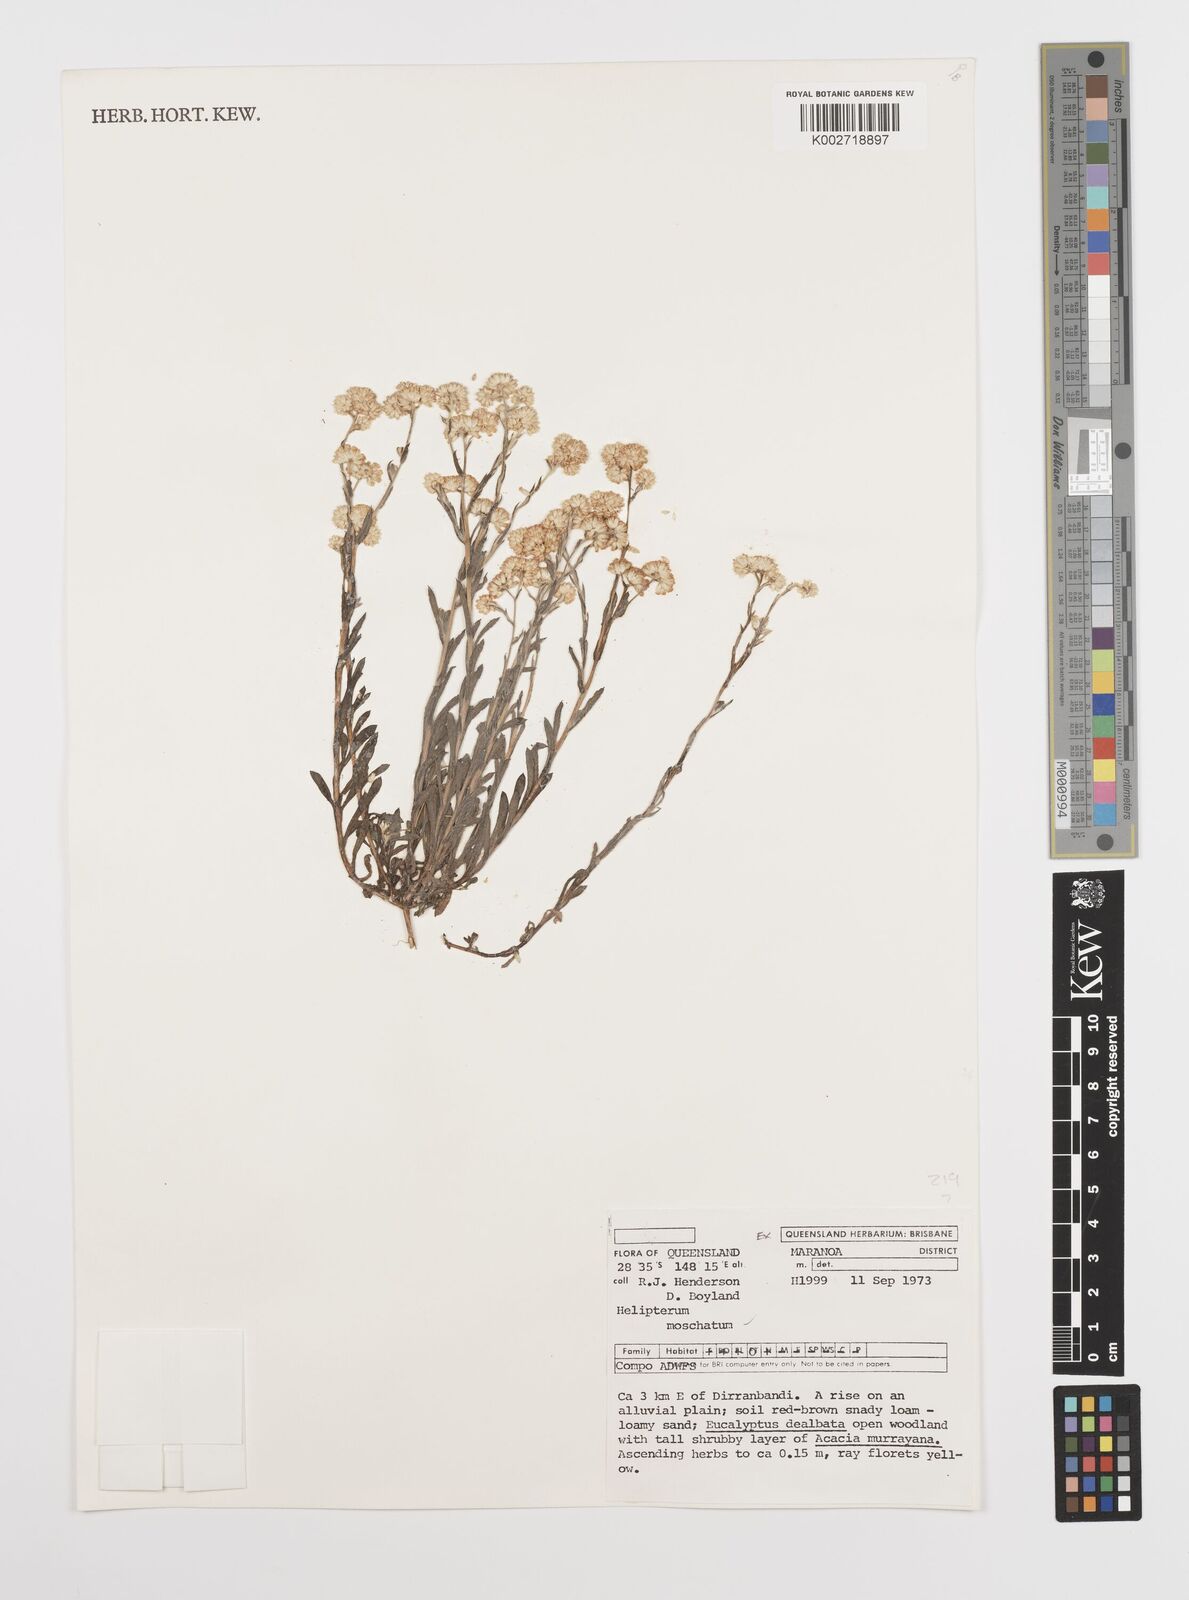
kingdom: Plantae
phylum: Tracheophyta
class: Magnoliopsida
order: Asterales
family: Asteraceae
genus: Rhodanthe
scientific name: Rhodanthe moschata
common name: Musk sunray
